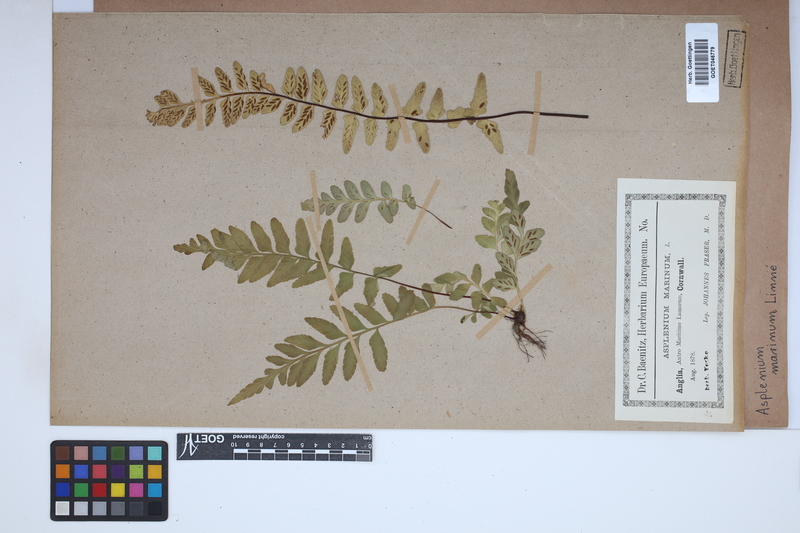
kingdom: Plantae
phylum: Tracheophyta
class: Polypodiopsida
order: Polypodiales
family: Aspleniaceae
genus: Asplenium
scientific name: Asplenium marinum
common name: Sea spleenwort
